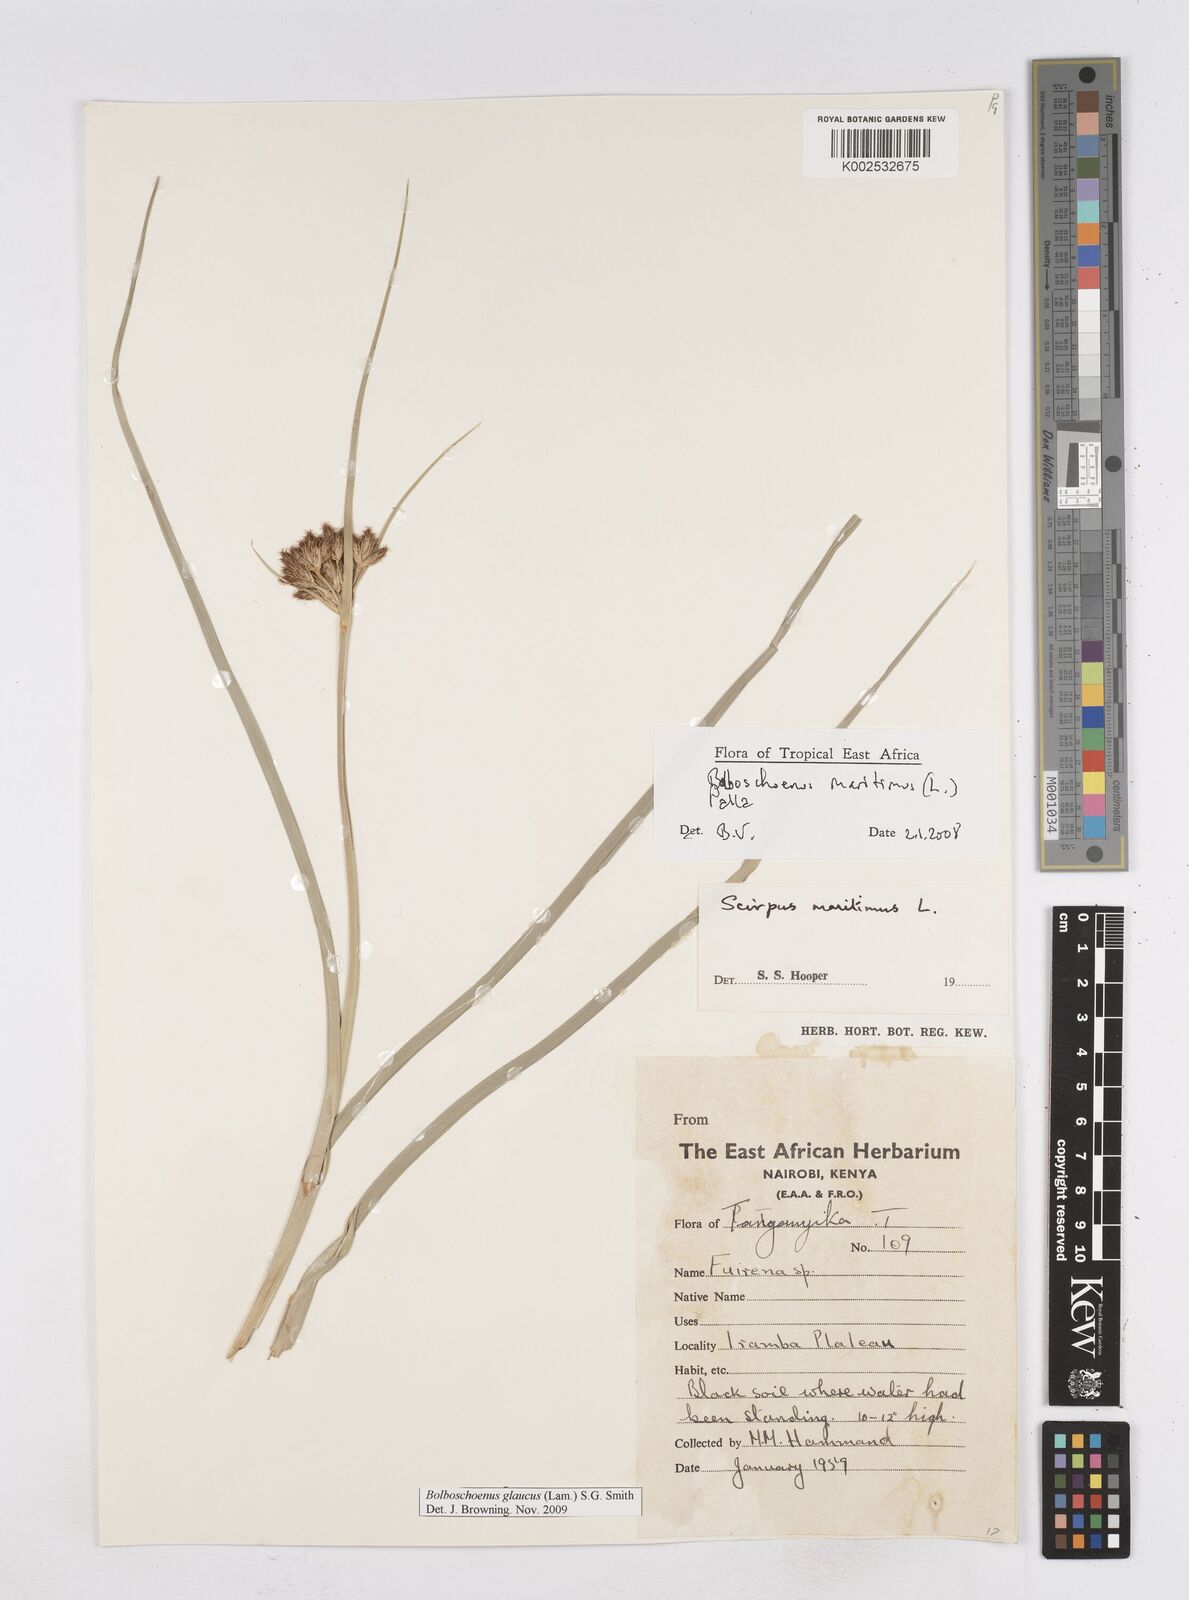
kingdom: Plantae
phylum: Tracheophyta
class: Liliopsida
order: Poales
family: Cyperaceae
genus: Bolboschoenus
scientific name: Bolboschoenus glaucus
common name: Tuberous bulrush
